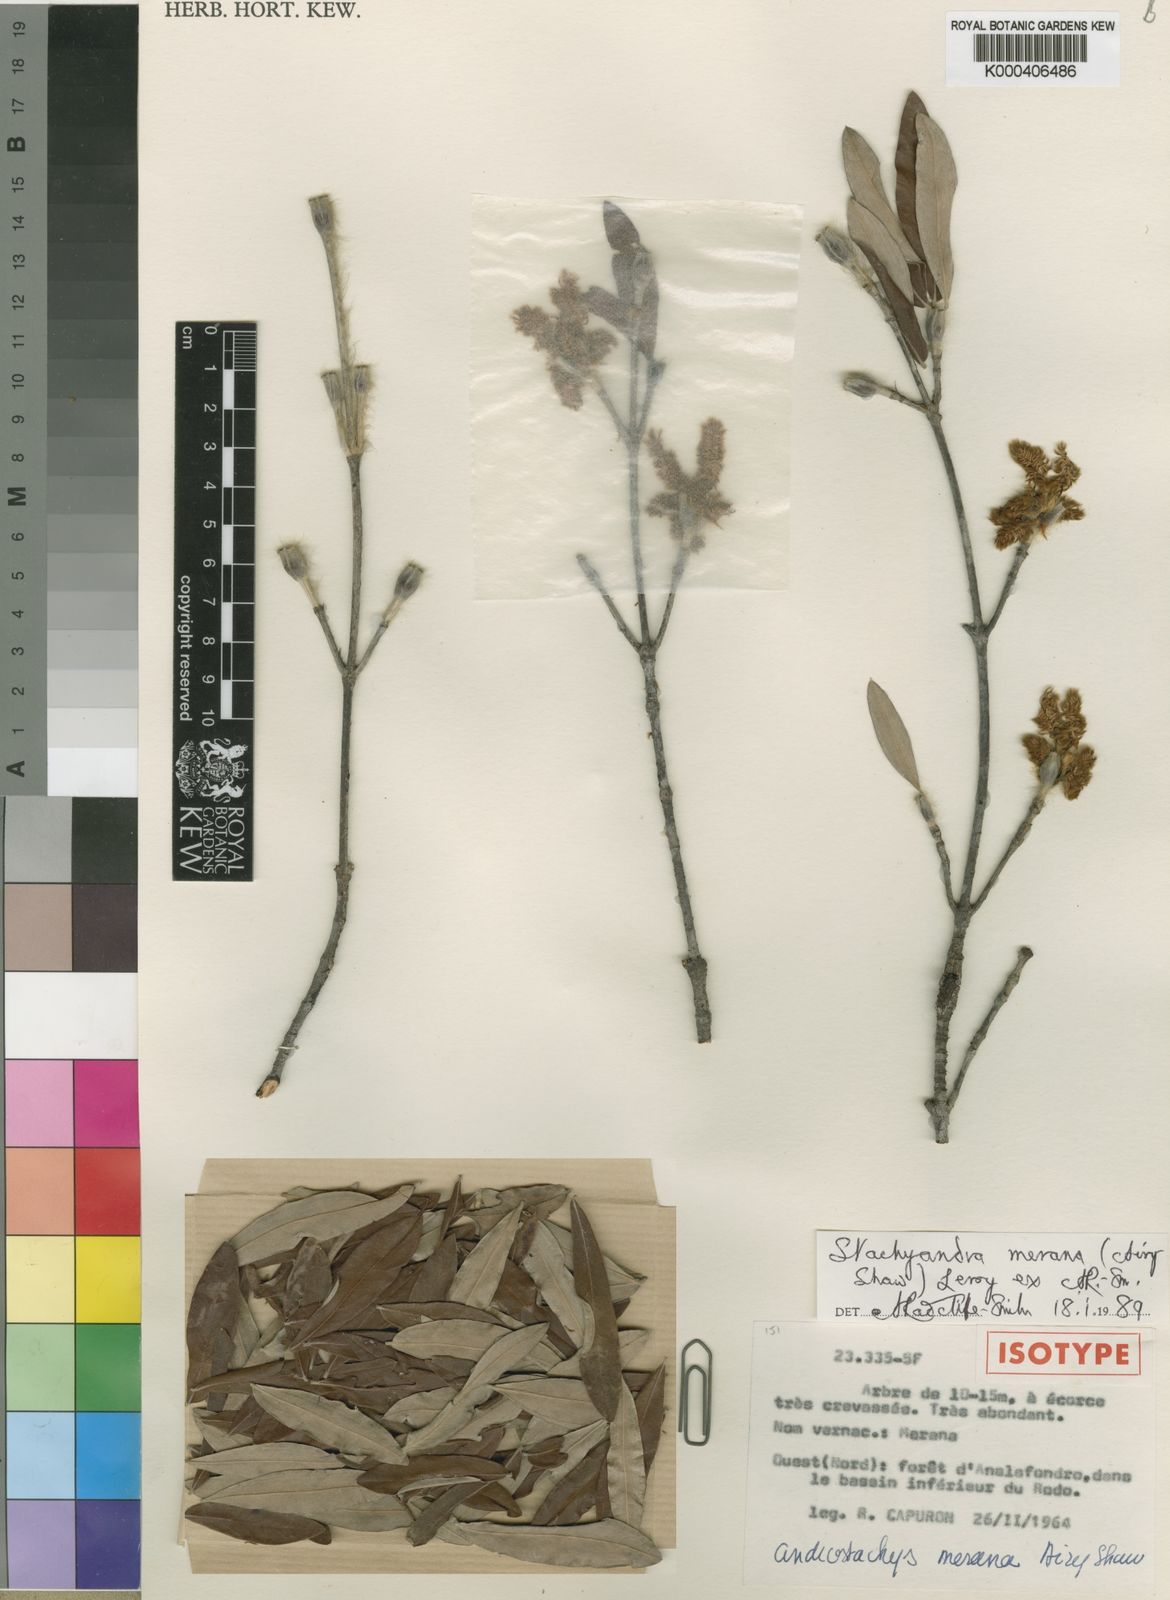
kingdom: Plantae
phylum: Tracheophyta
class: Magnoliopsida
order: Malpighiales
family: Picrodendraceae
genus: Stachyandra
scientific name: Stachyandra merana
